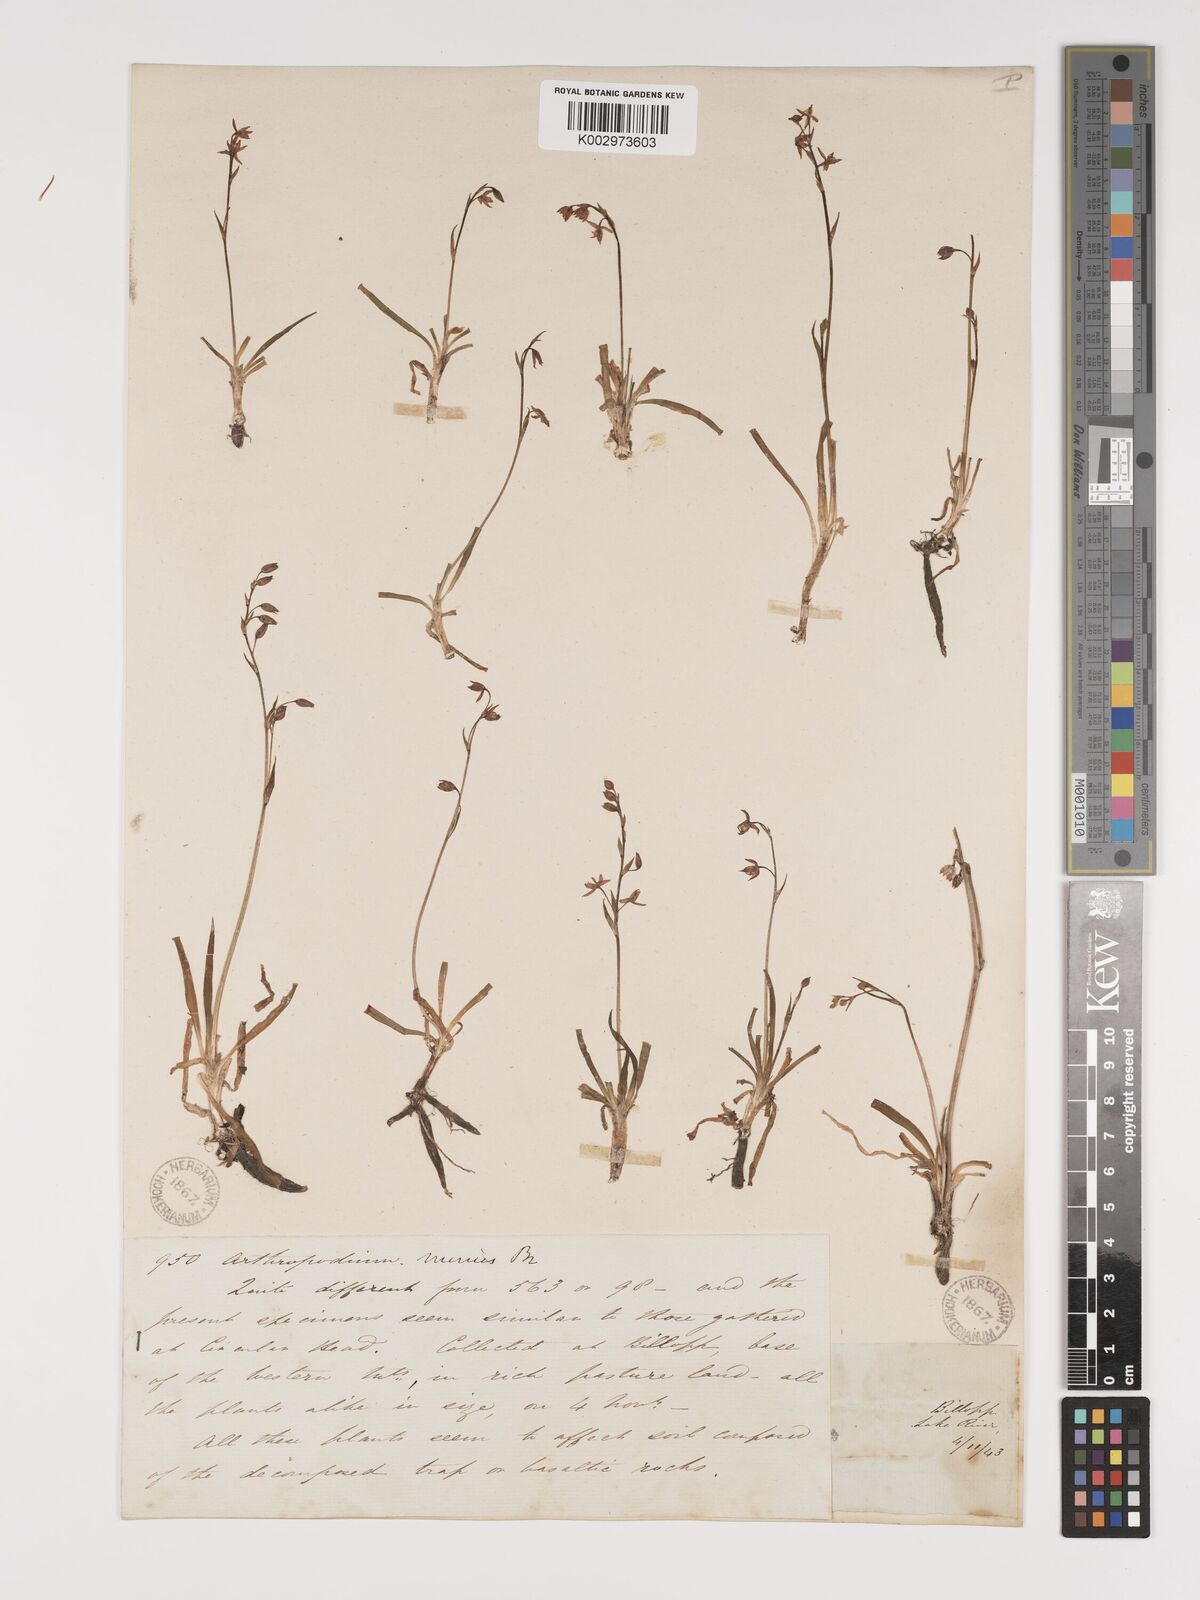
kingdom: Plantae
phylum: Tracheophyta
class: Liliopsida
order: Asparagales
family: Asparagaceae
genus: Arthropodium
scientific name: Arthropodium minus
